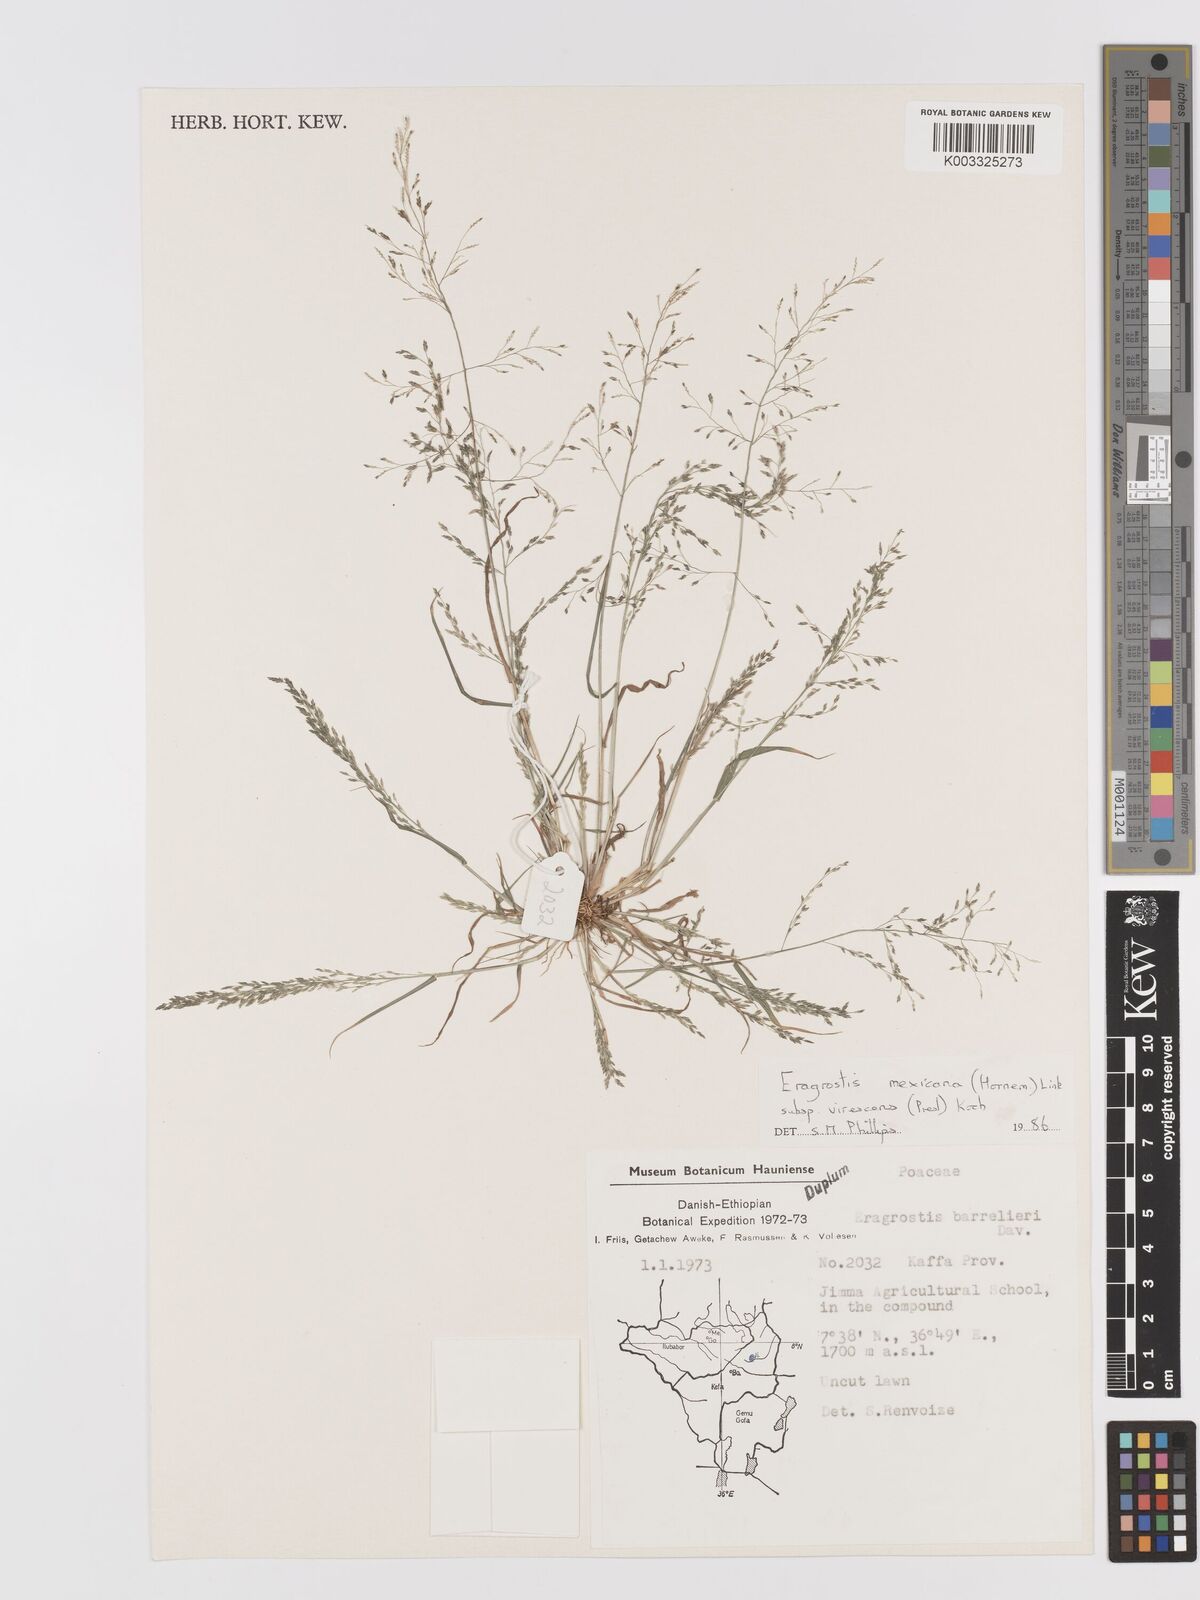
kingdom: Plantae
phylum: Tracheophyta
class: Liliopsida
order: Poales
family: Poaceae
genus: Eragrostis
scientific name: Eragrostis mexicana
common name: Mexican love grass
